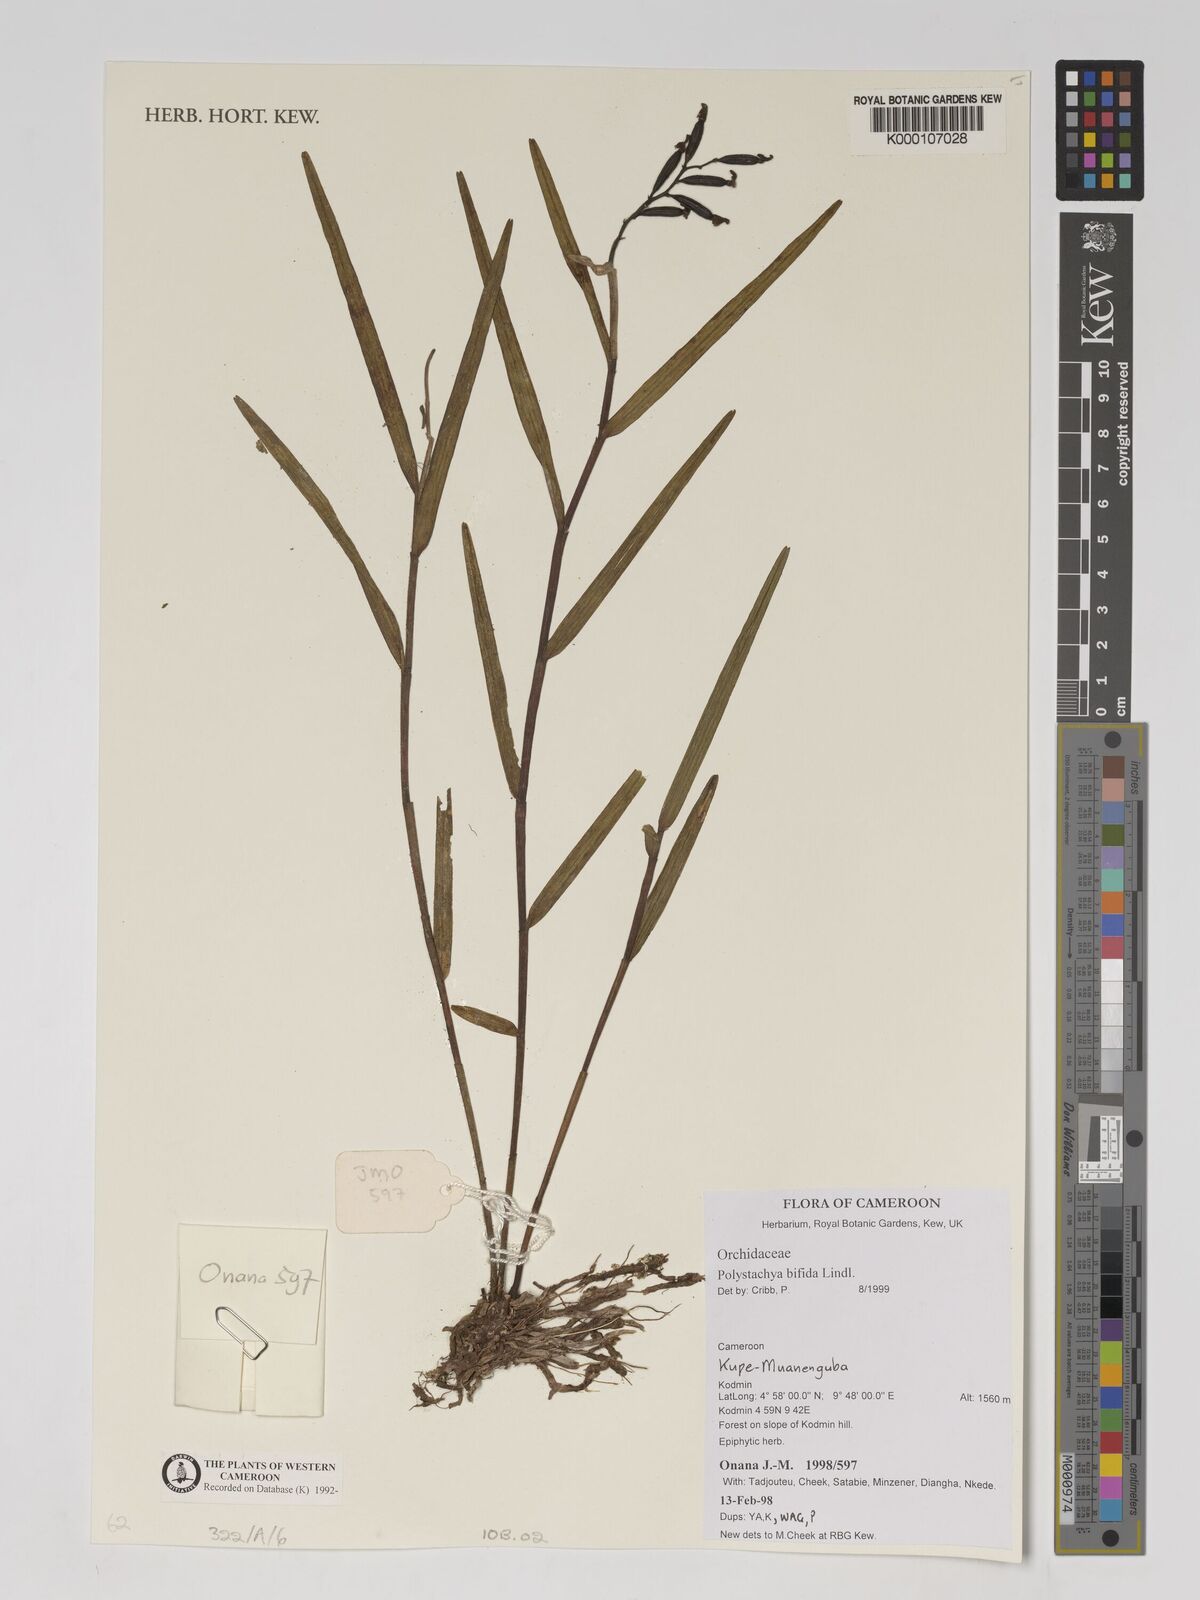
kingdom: Plantae
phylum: Tracheophyta
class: Liliopsida
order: Asparagales
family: Orchidaceae
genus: Polystachya
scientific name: Polystachya bifida
